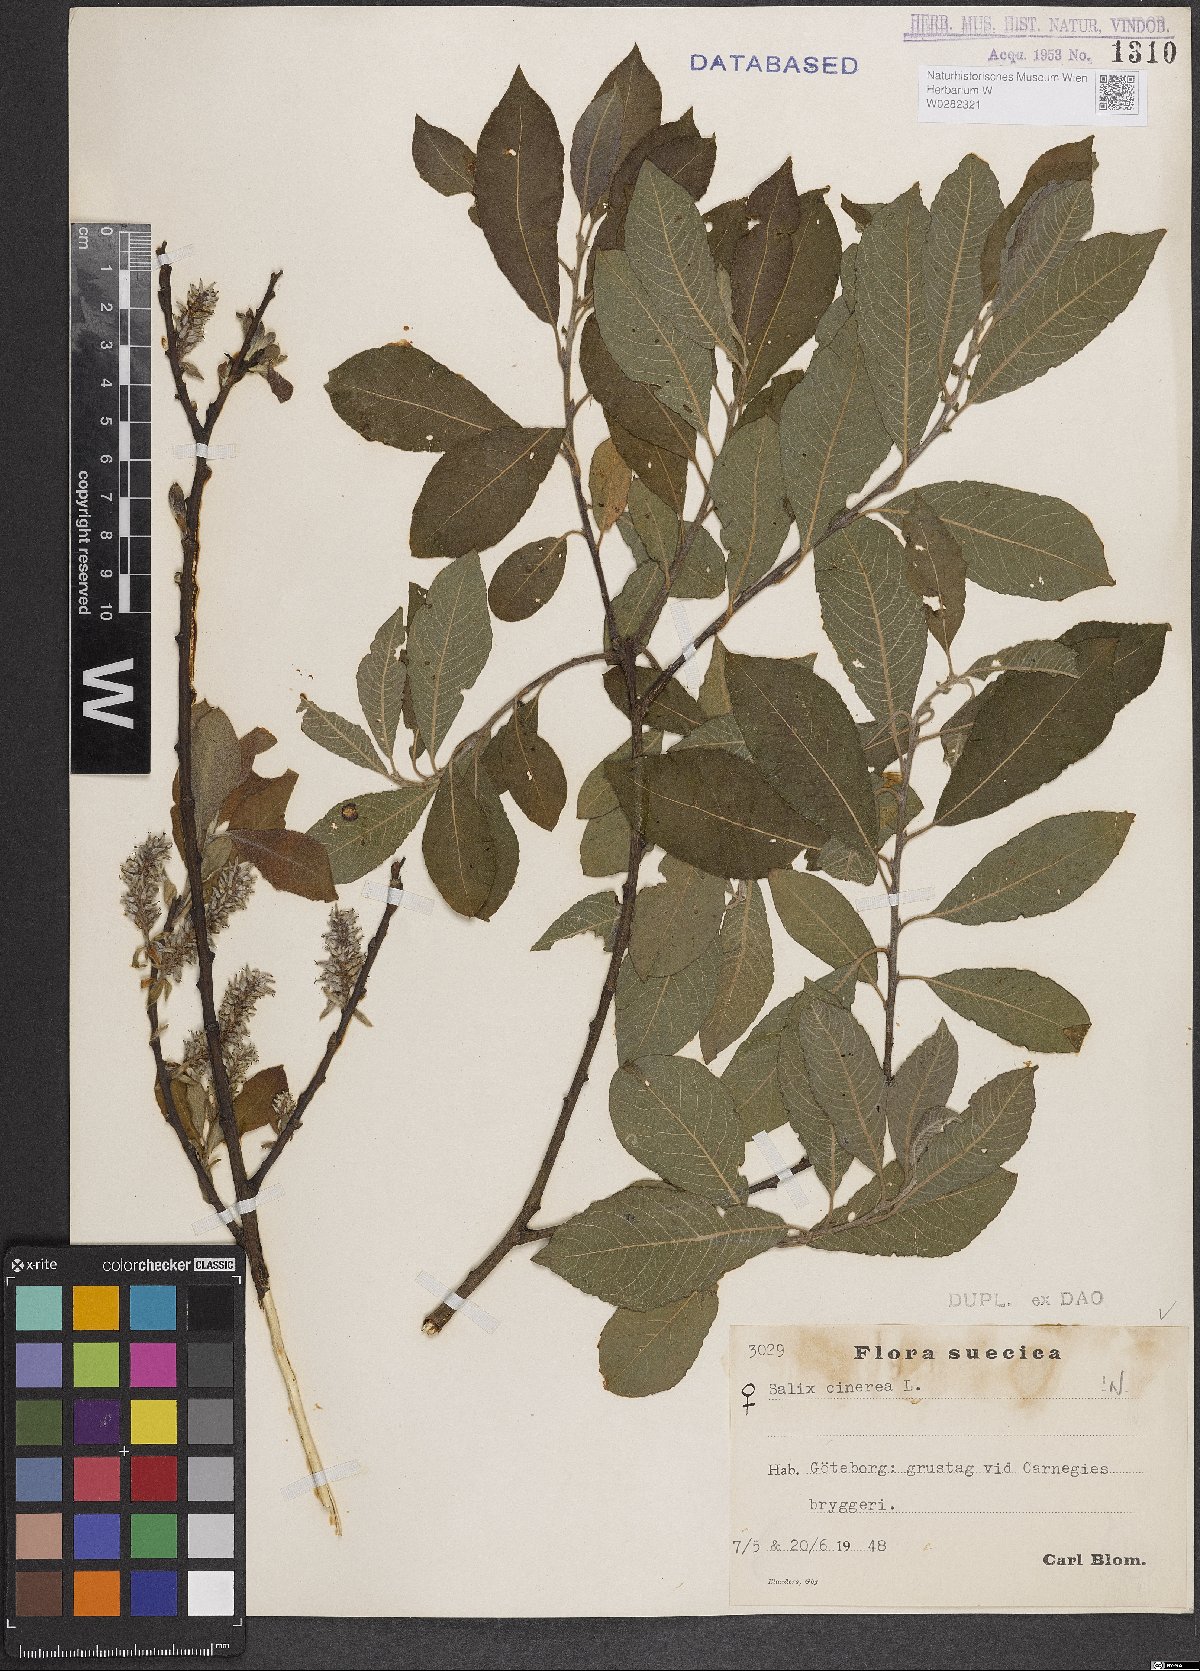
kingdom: Plantae
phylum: Tracheophyta
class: Magnoliopsida
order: Malpighiales
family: Salicaceae
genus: Salix
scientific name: Salix cinerea
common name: Common sallow
